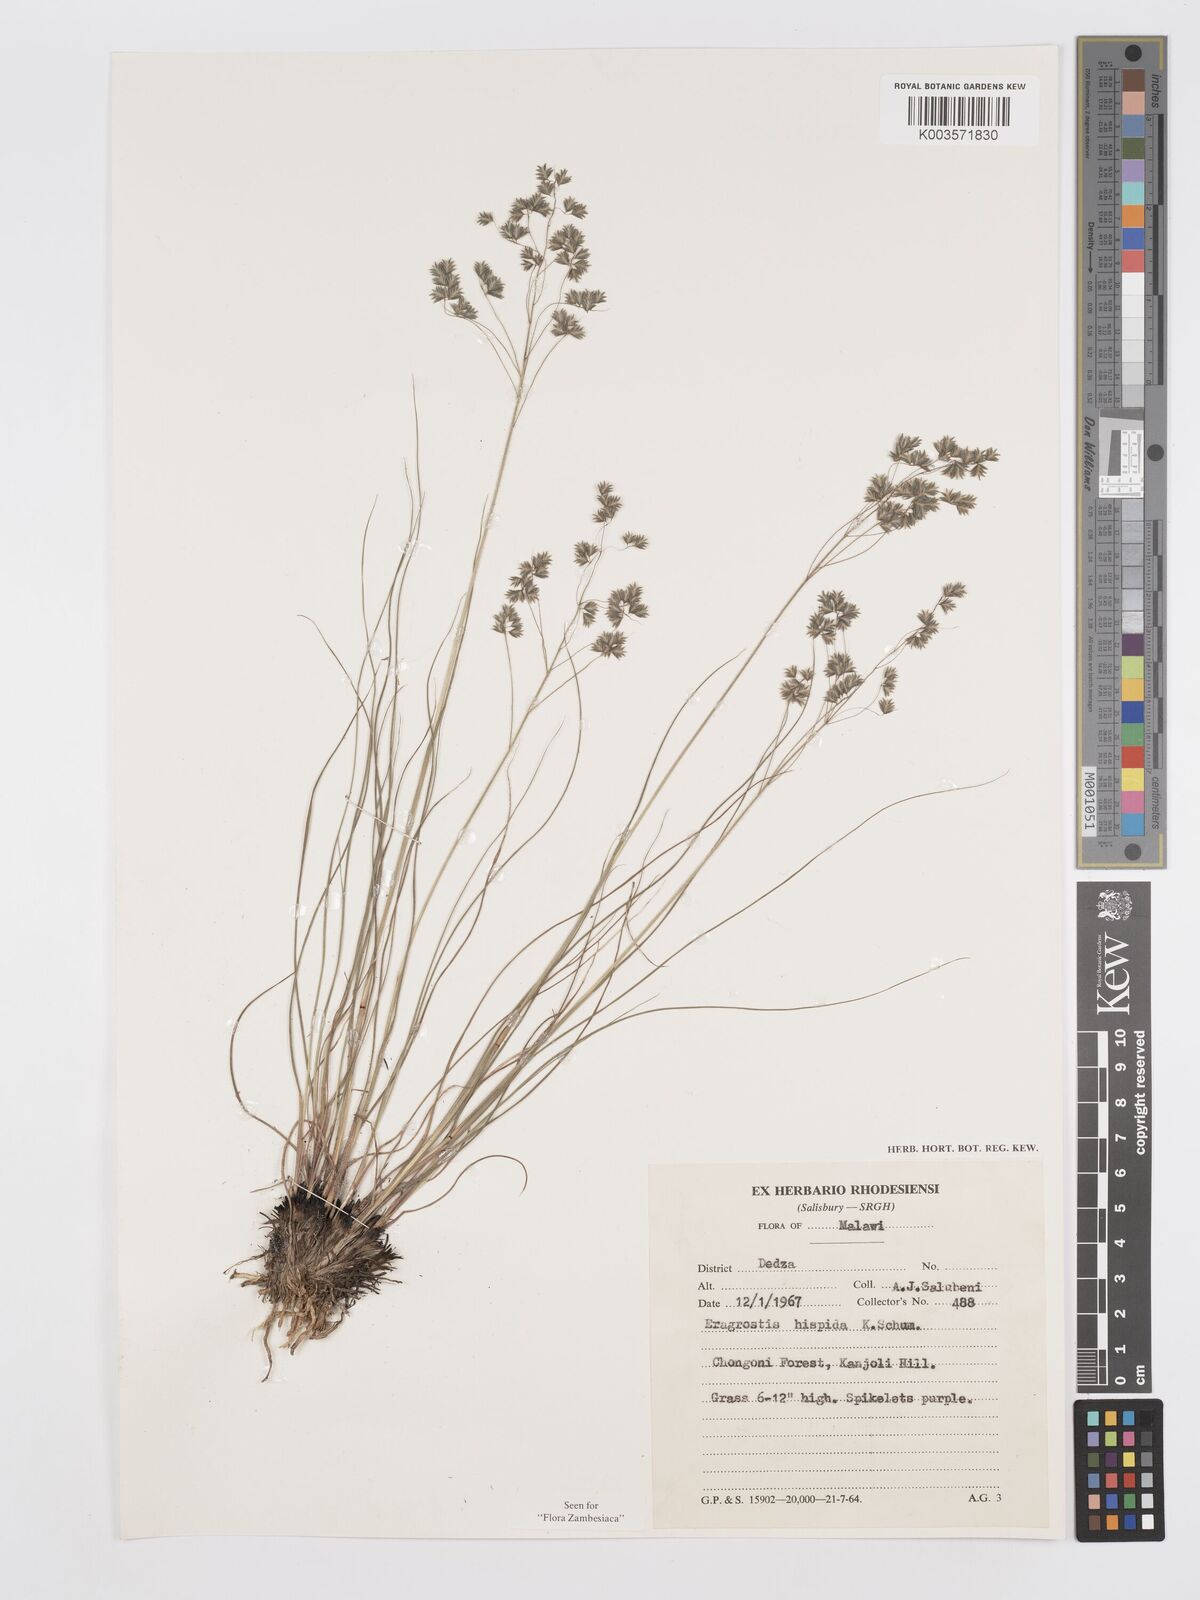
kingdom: Plantae
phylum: Tracheophyta
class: Liliopsida
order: Poales
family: Poaceae
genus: Eragrostis
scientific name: Eragrostis hispida
